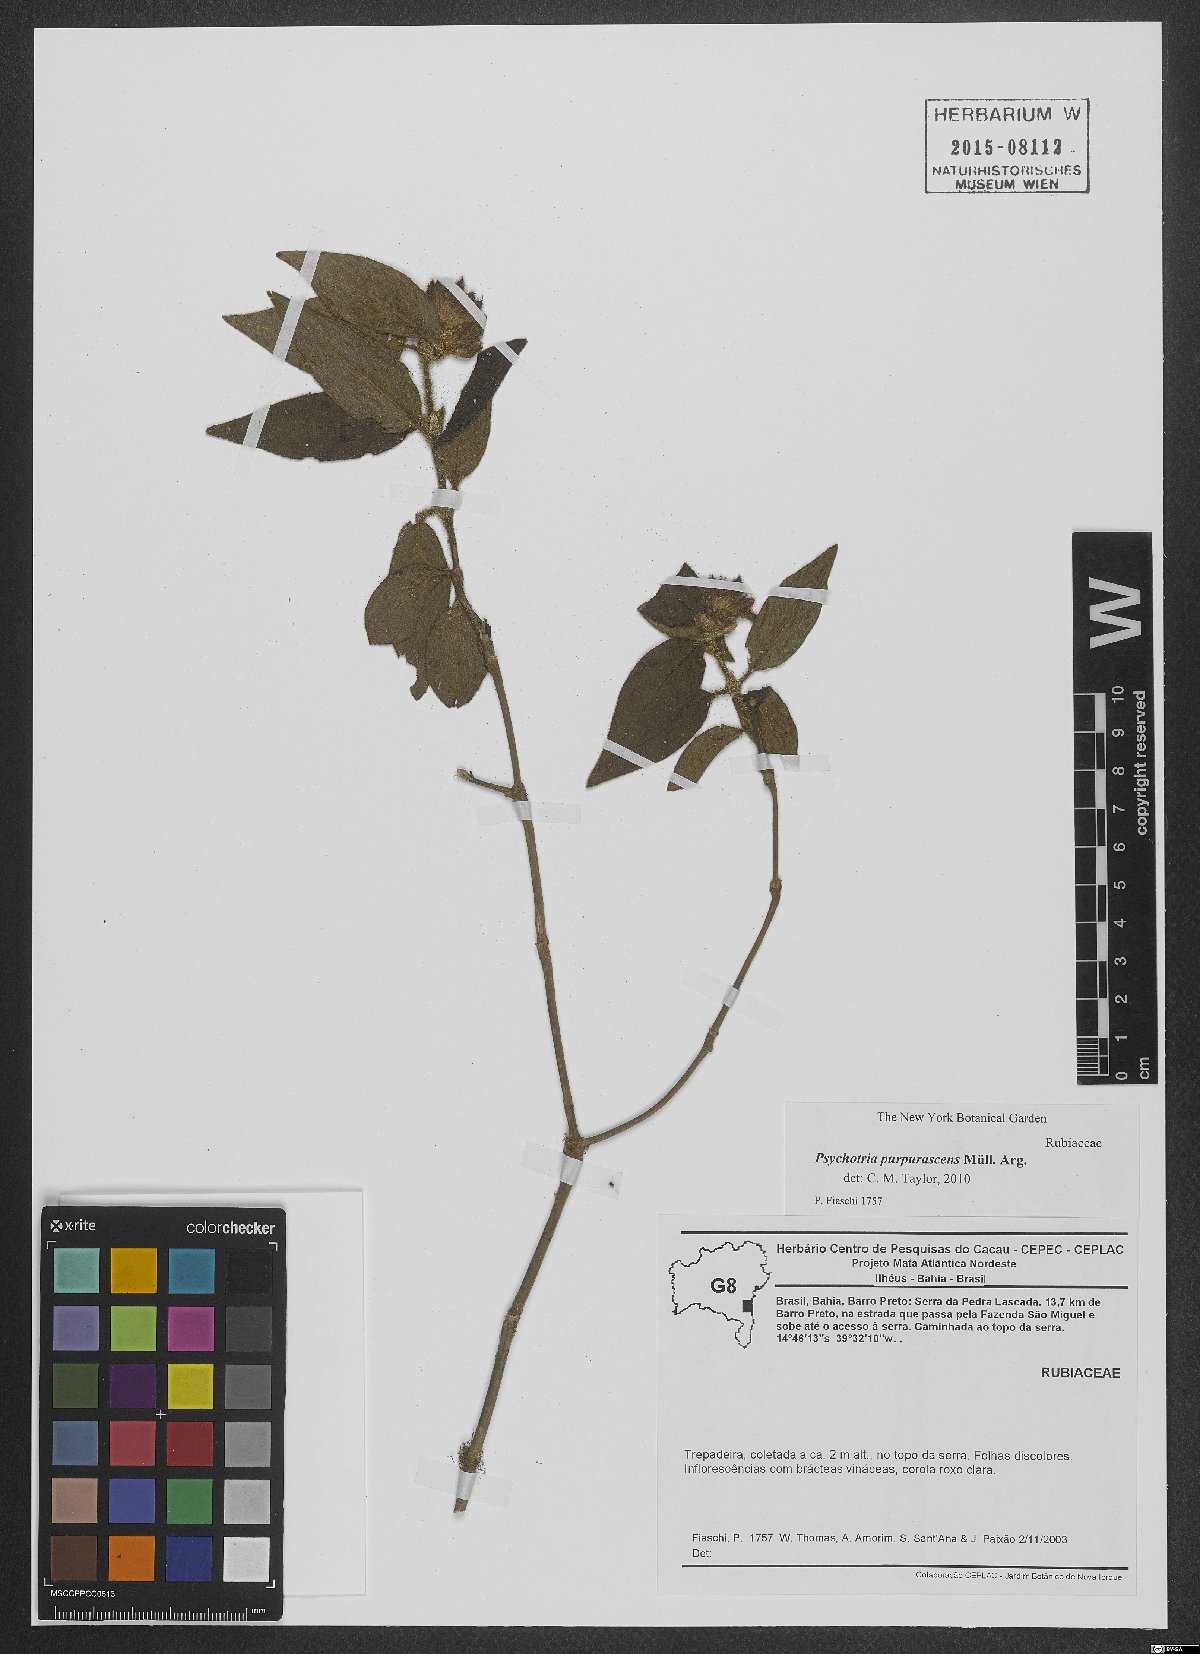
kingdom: Plantae
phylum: Tracheophyta
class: Magnoliopsida
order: Gentianales
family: Rubiaceae
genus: Psychotria
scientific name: Psychotria stachyoides
